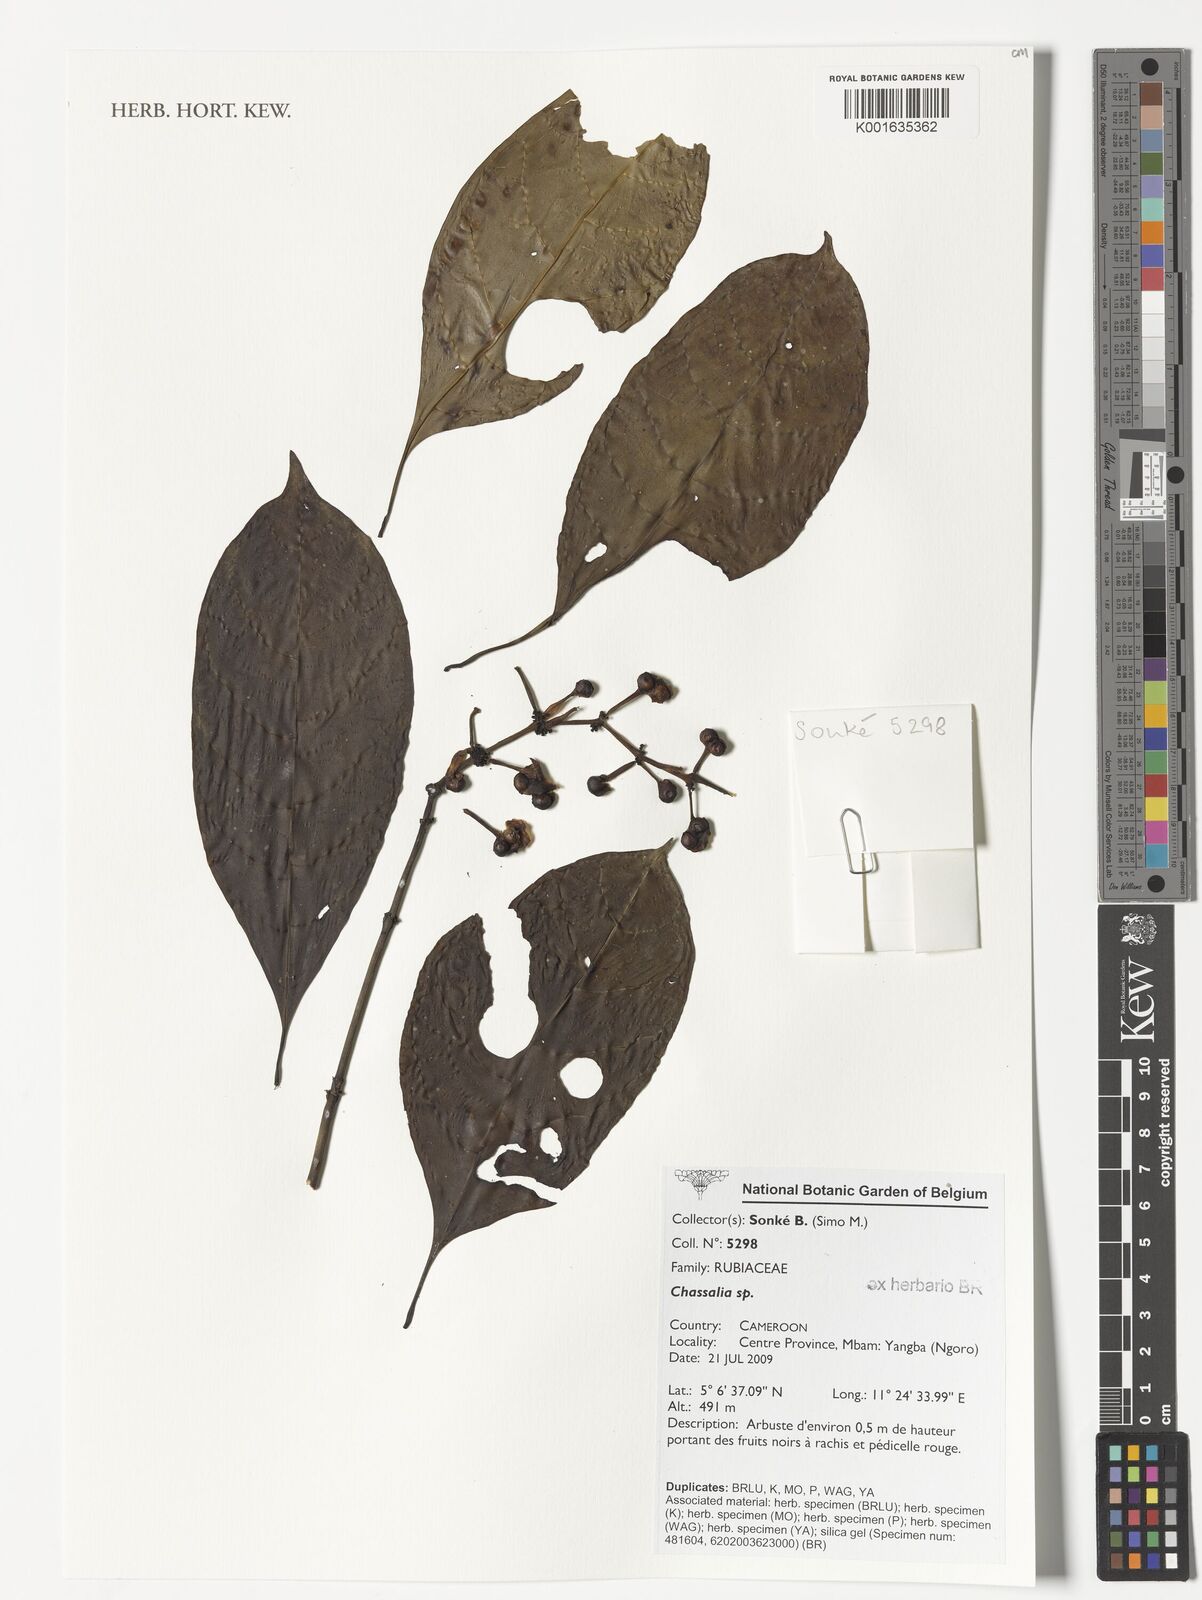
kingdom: Plantae
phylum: Tracheophyta
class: Magnoliopsida
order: Gentianales
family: Rubiaceae
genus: Chassalia
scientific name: Chassalia
